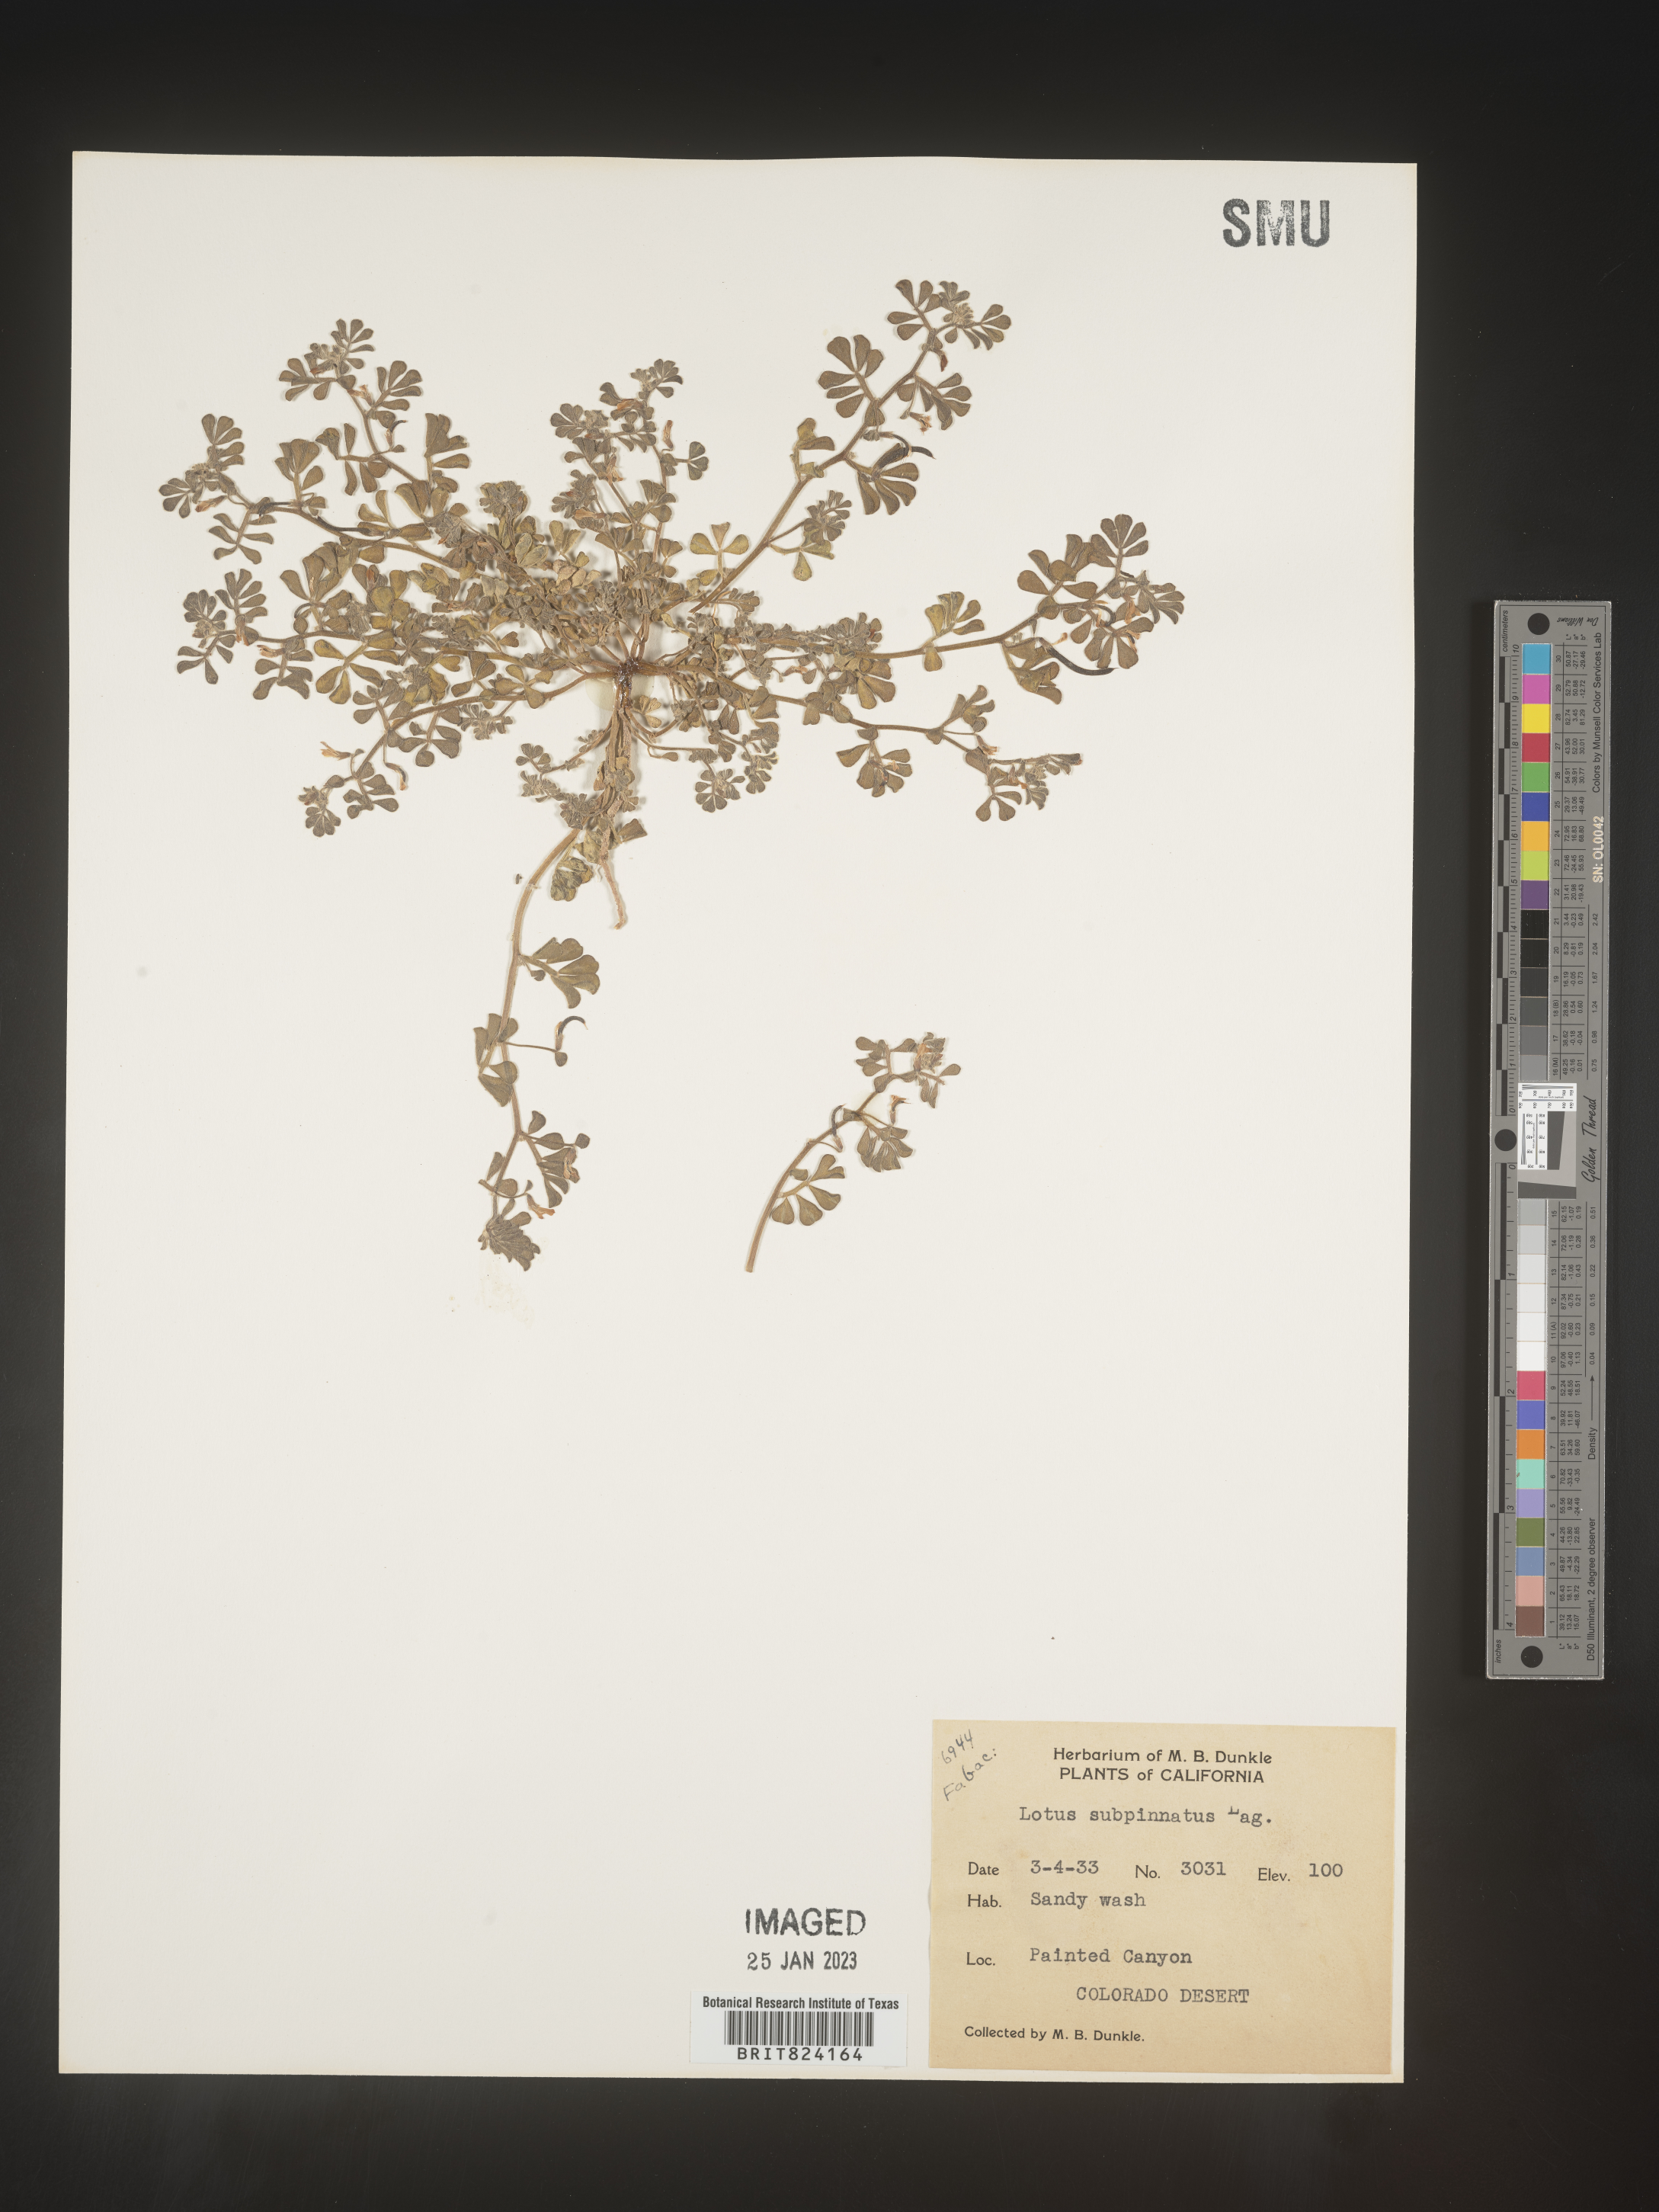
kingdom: Plantae
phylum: Tracheophyta
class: Magnoliopsida
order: Fabales
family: Fabaceae
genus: Lotus
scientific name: Lotus
